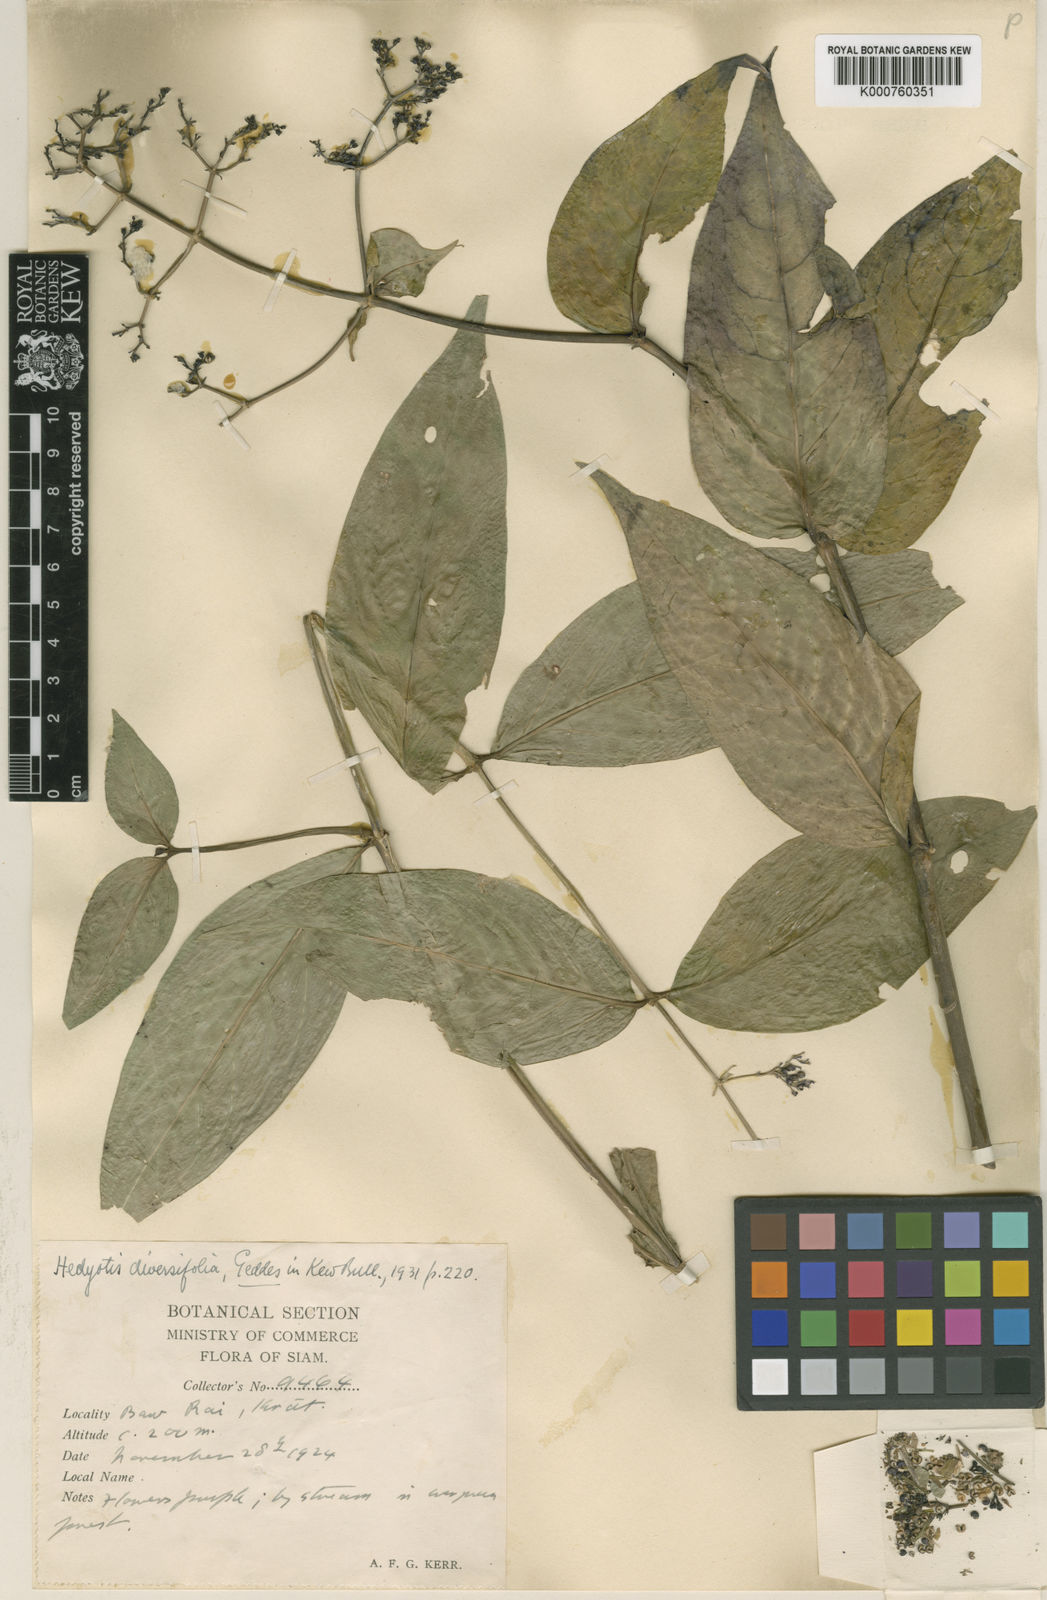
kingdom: Plantae
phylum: Tracheophyta
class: Magnoliopsida
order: Gentianales
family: Rubiaceae
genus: Hedyotis
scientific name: Hedyotis kamputensis
